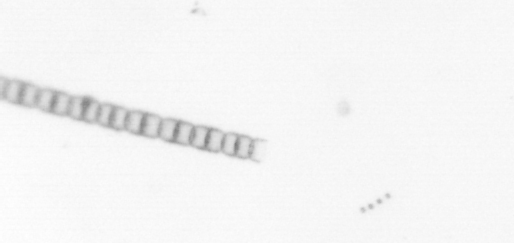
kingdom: Chromista
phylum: Ochrophyta
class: Bacillariophyceae
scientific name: Bacillariophyceae
